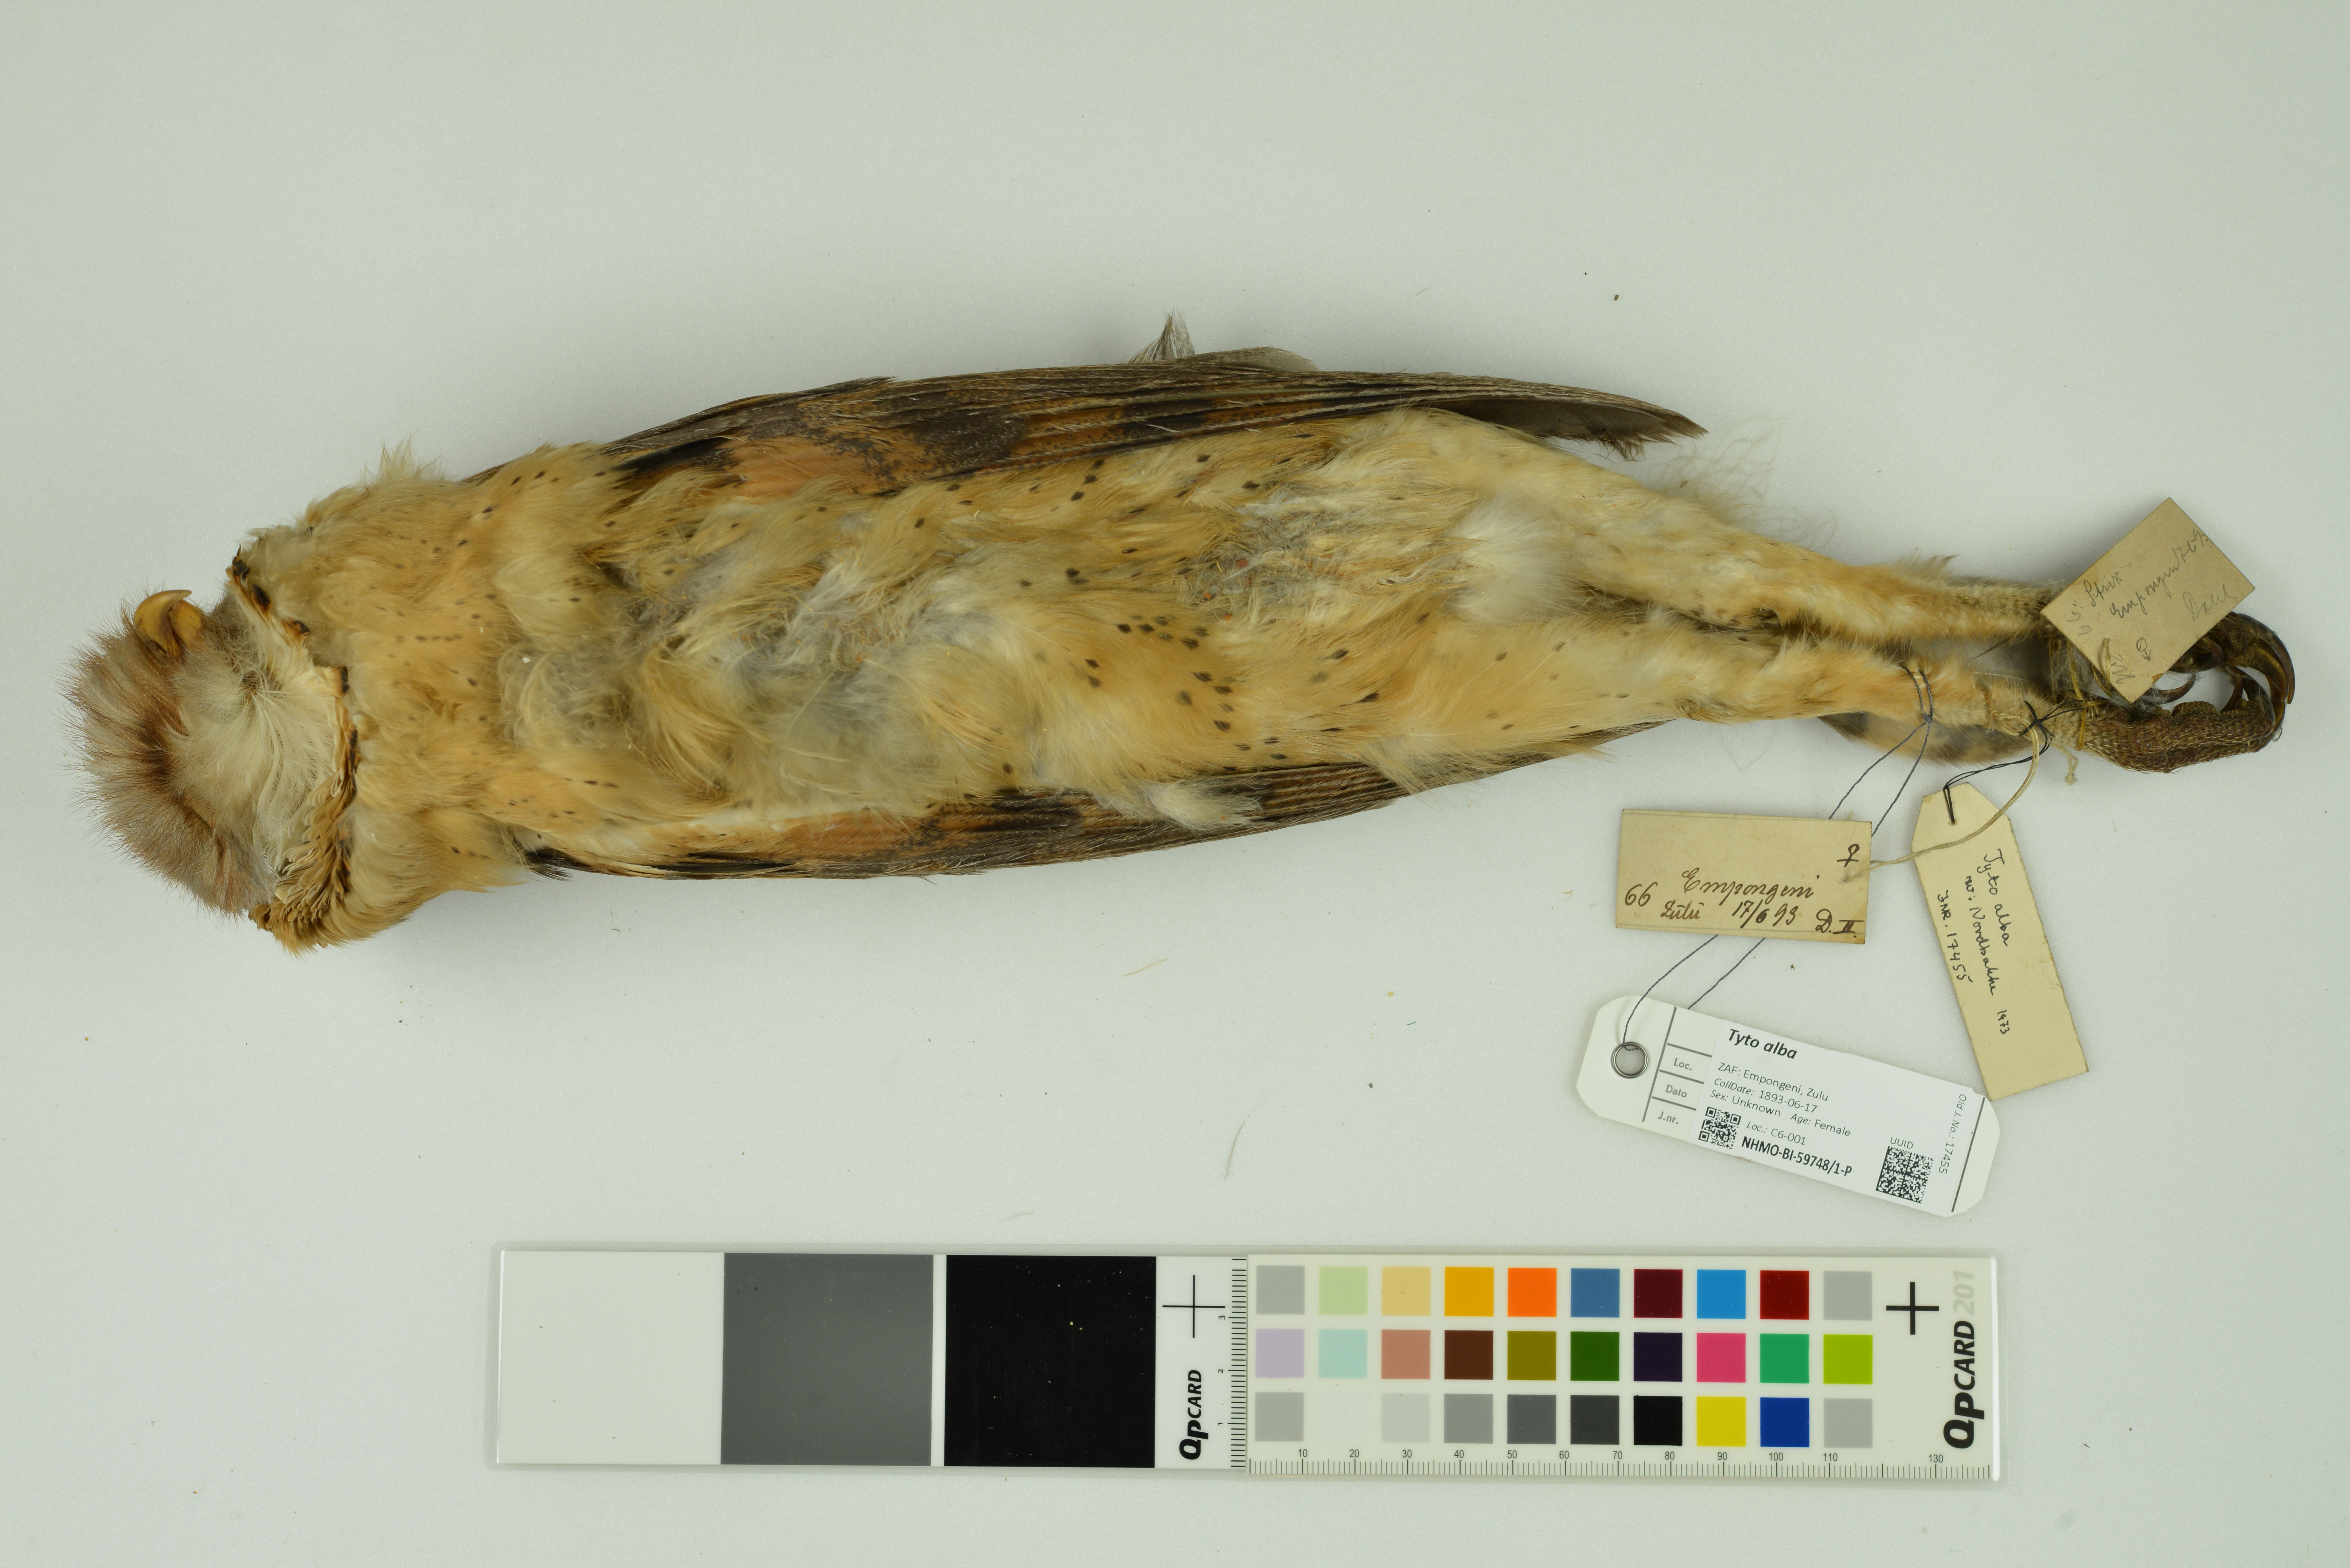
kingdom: Animalia
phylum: Chordata
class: Aves
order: Strigiformes
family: Tytonidae
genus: Tyto
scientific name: Tyto alba
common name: Barn owl
